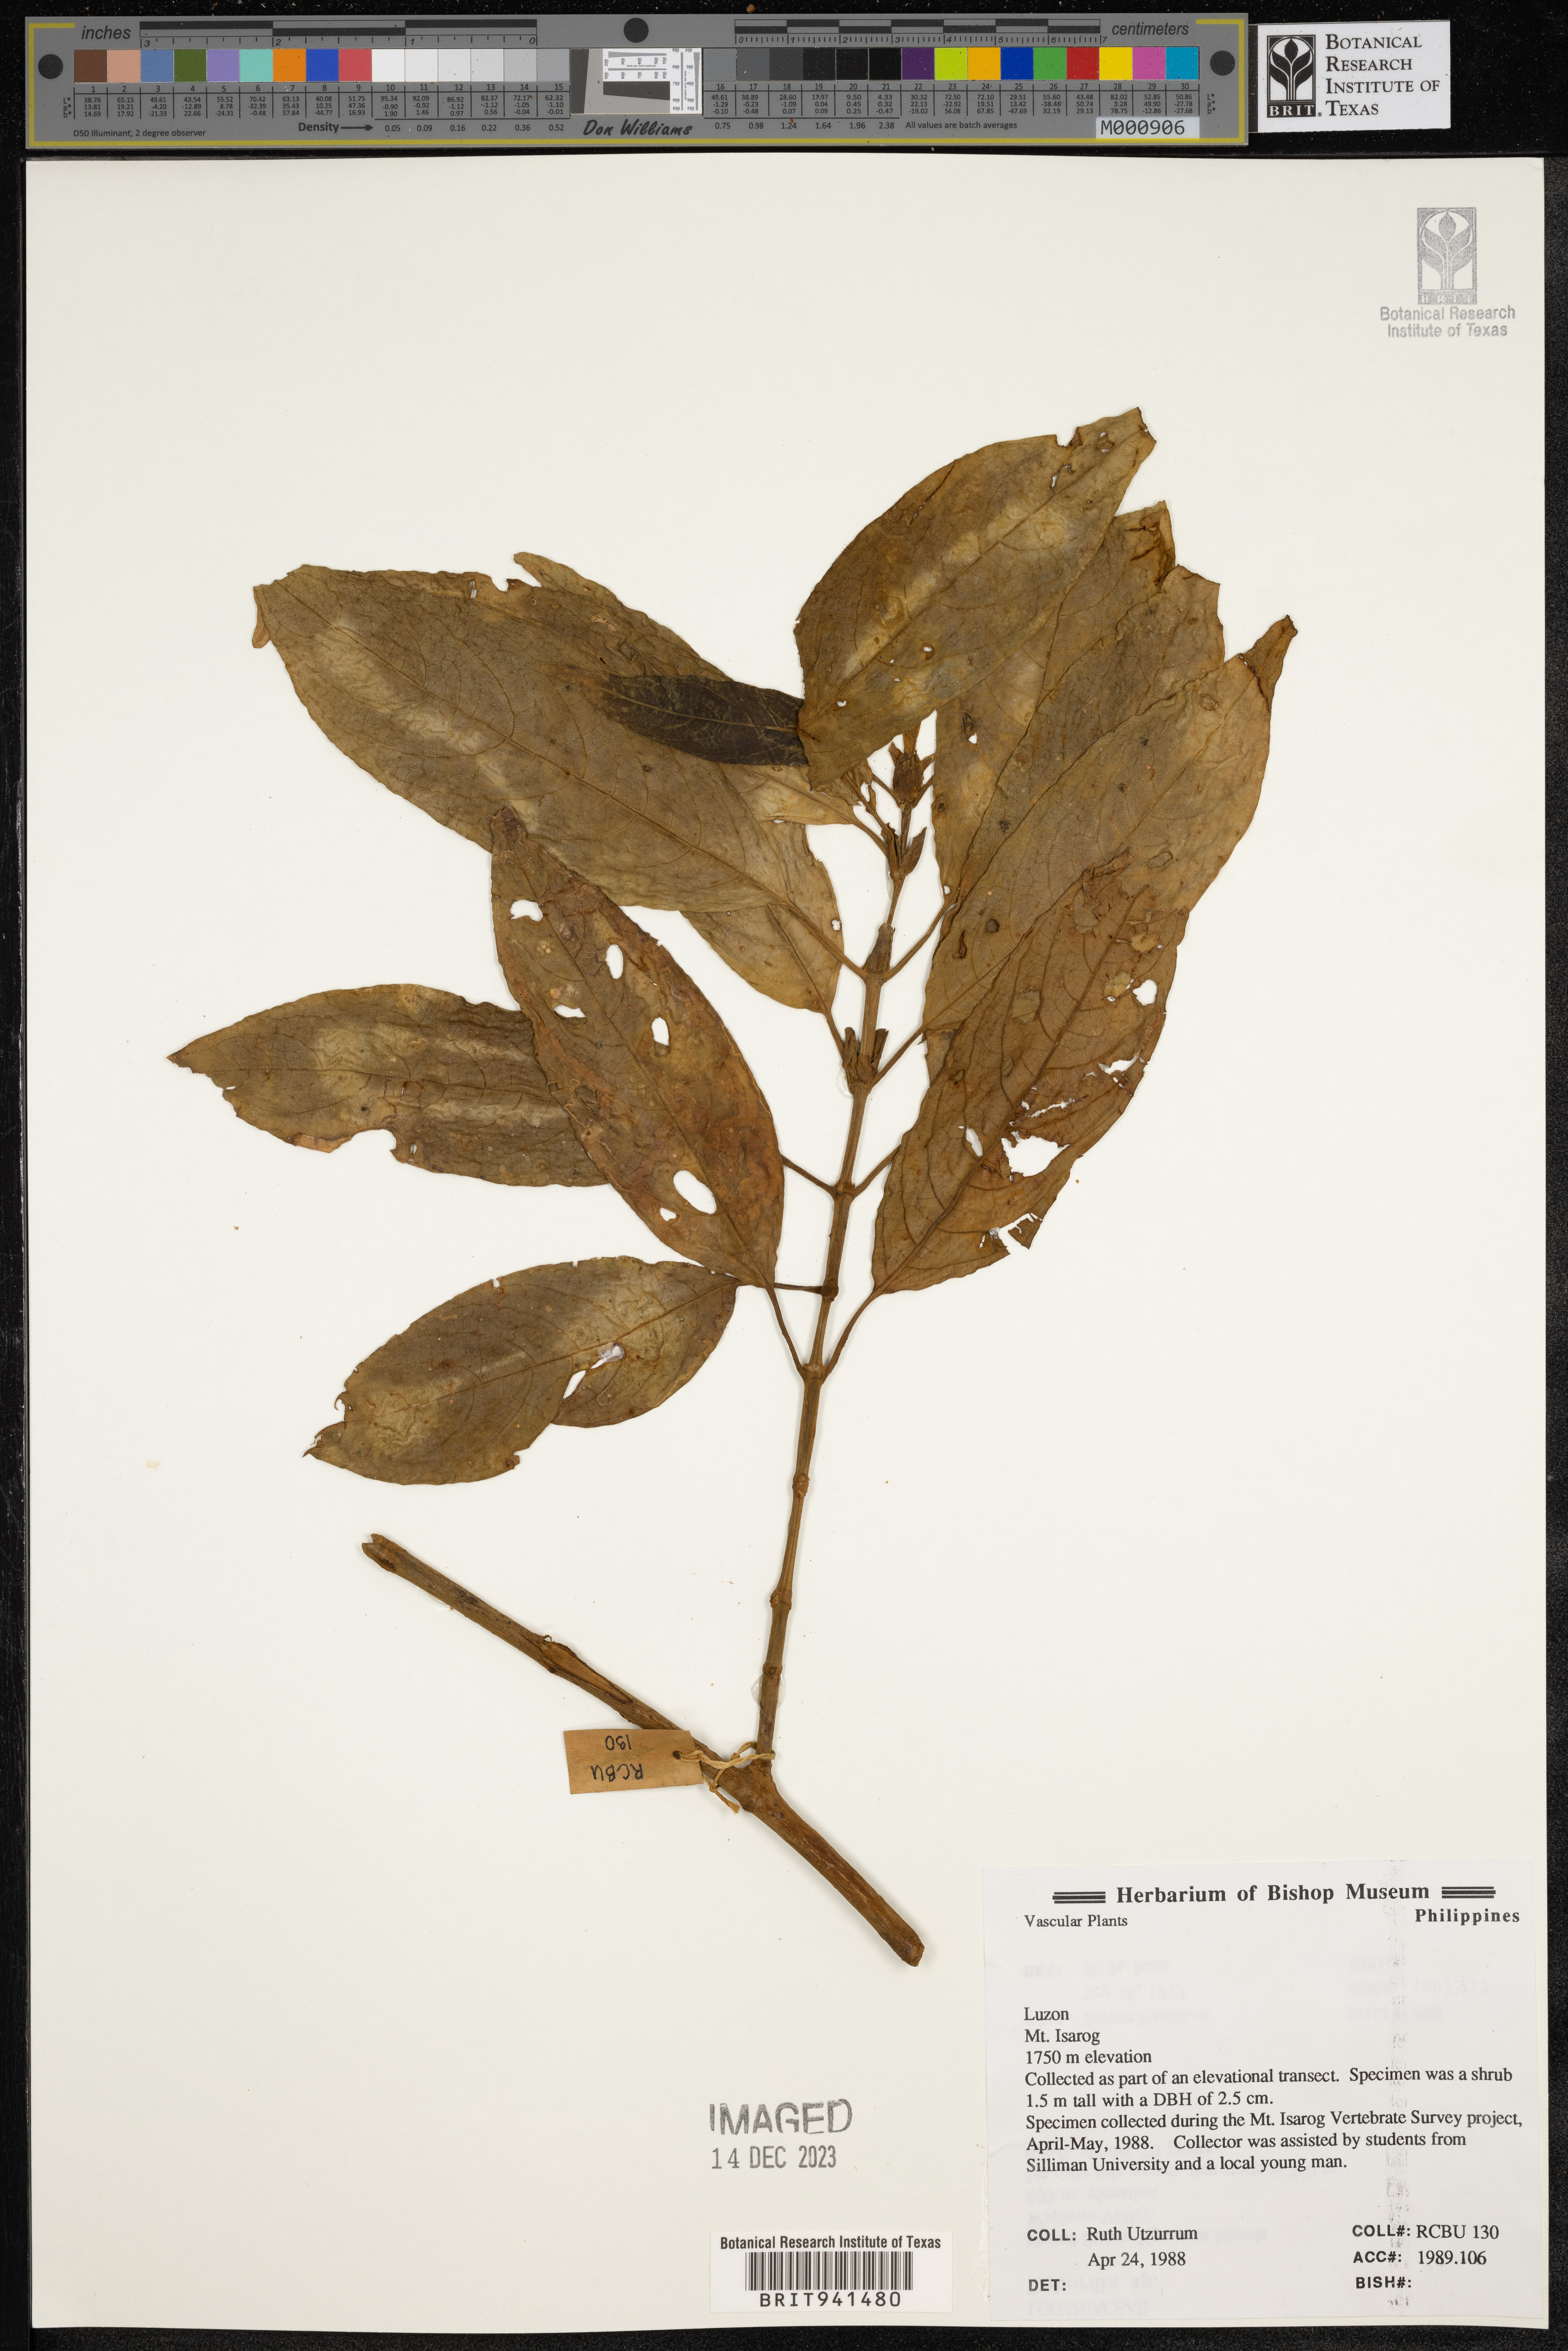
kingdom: Plantae
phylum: Tracheophyta
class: Magnoliopsida
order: Gentianales
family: Rubiaceae
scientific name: Rubiaceae
